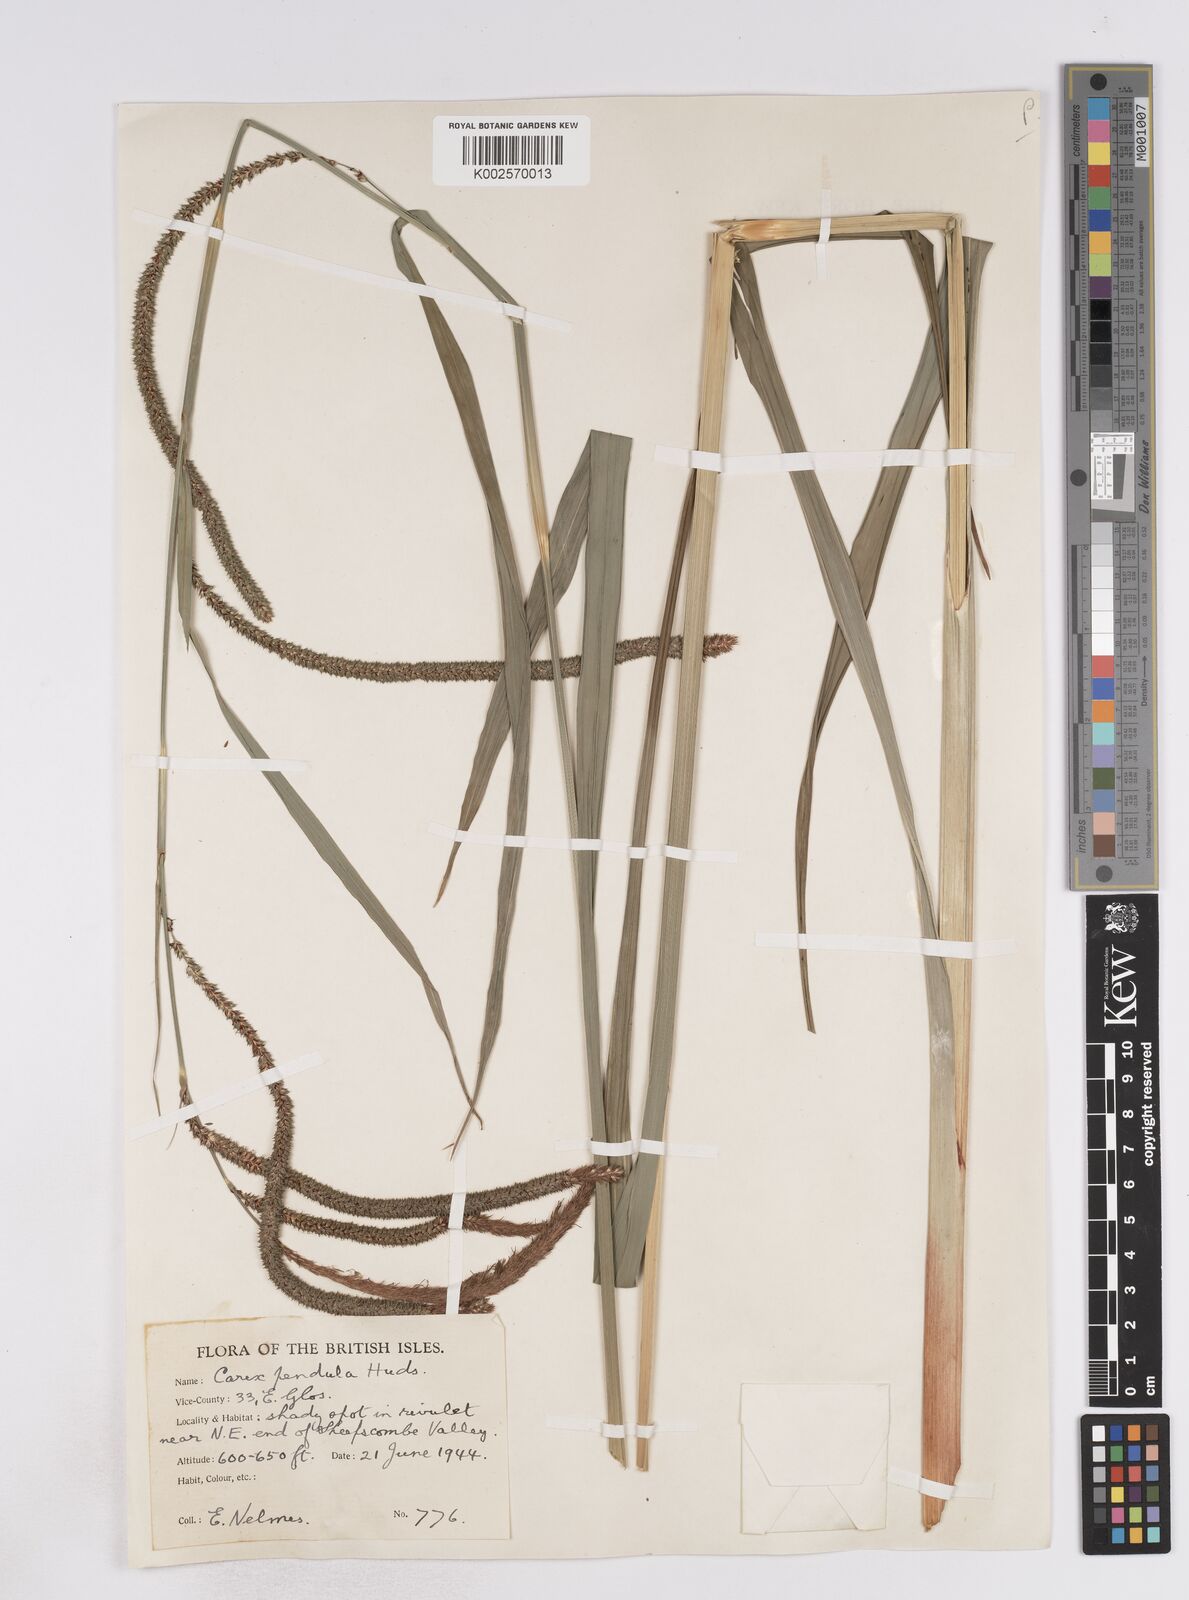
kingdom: Plantae
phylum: Tracheophyta
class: Liliopsida
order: Poales
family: Cyperaceae
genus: Carex
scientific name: Carex pendula
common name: Pendulous sedge
